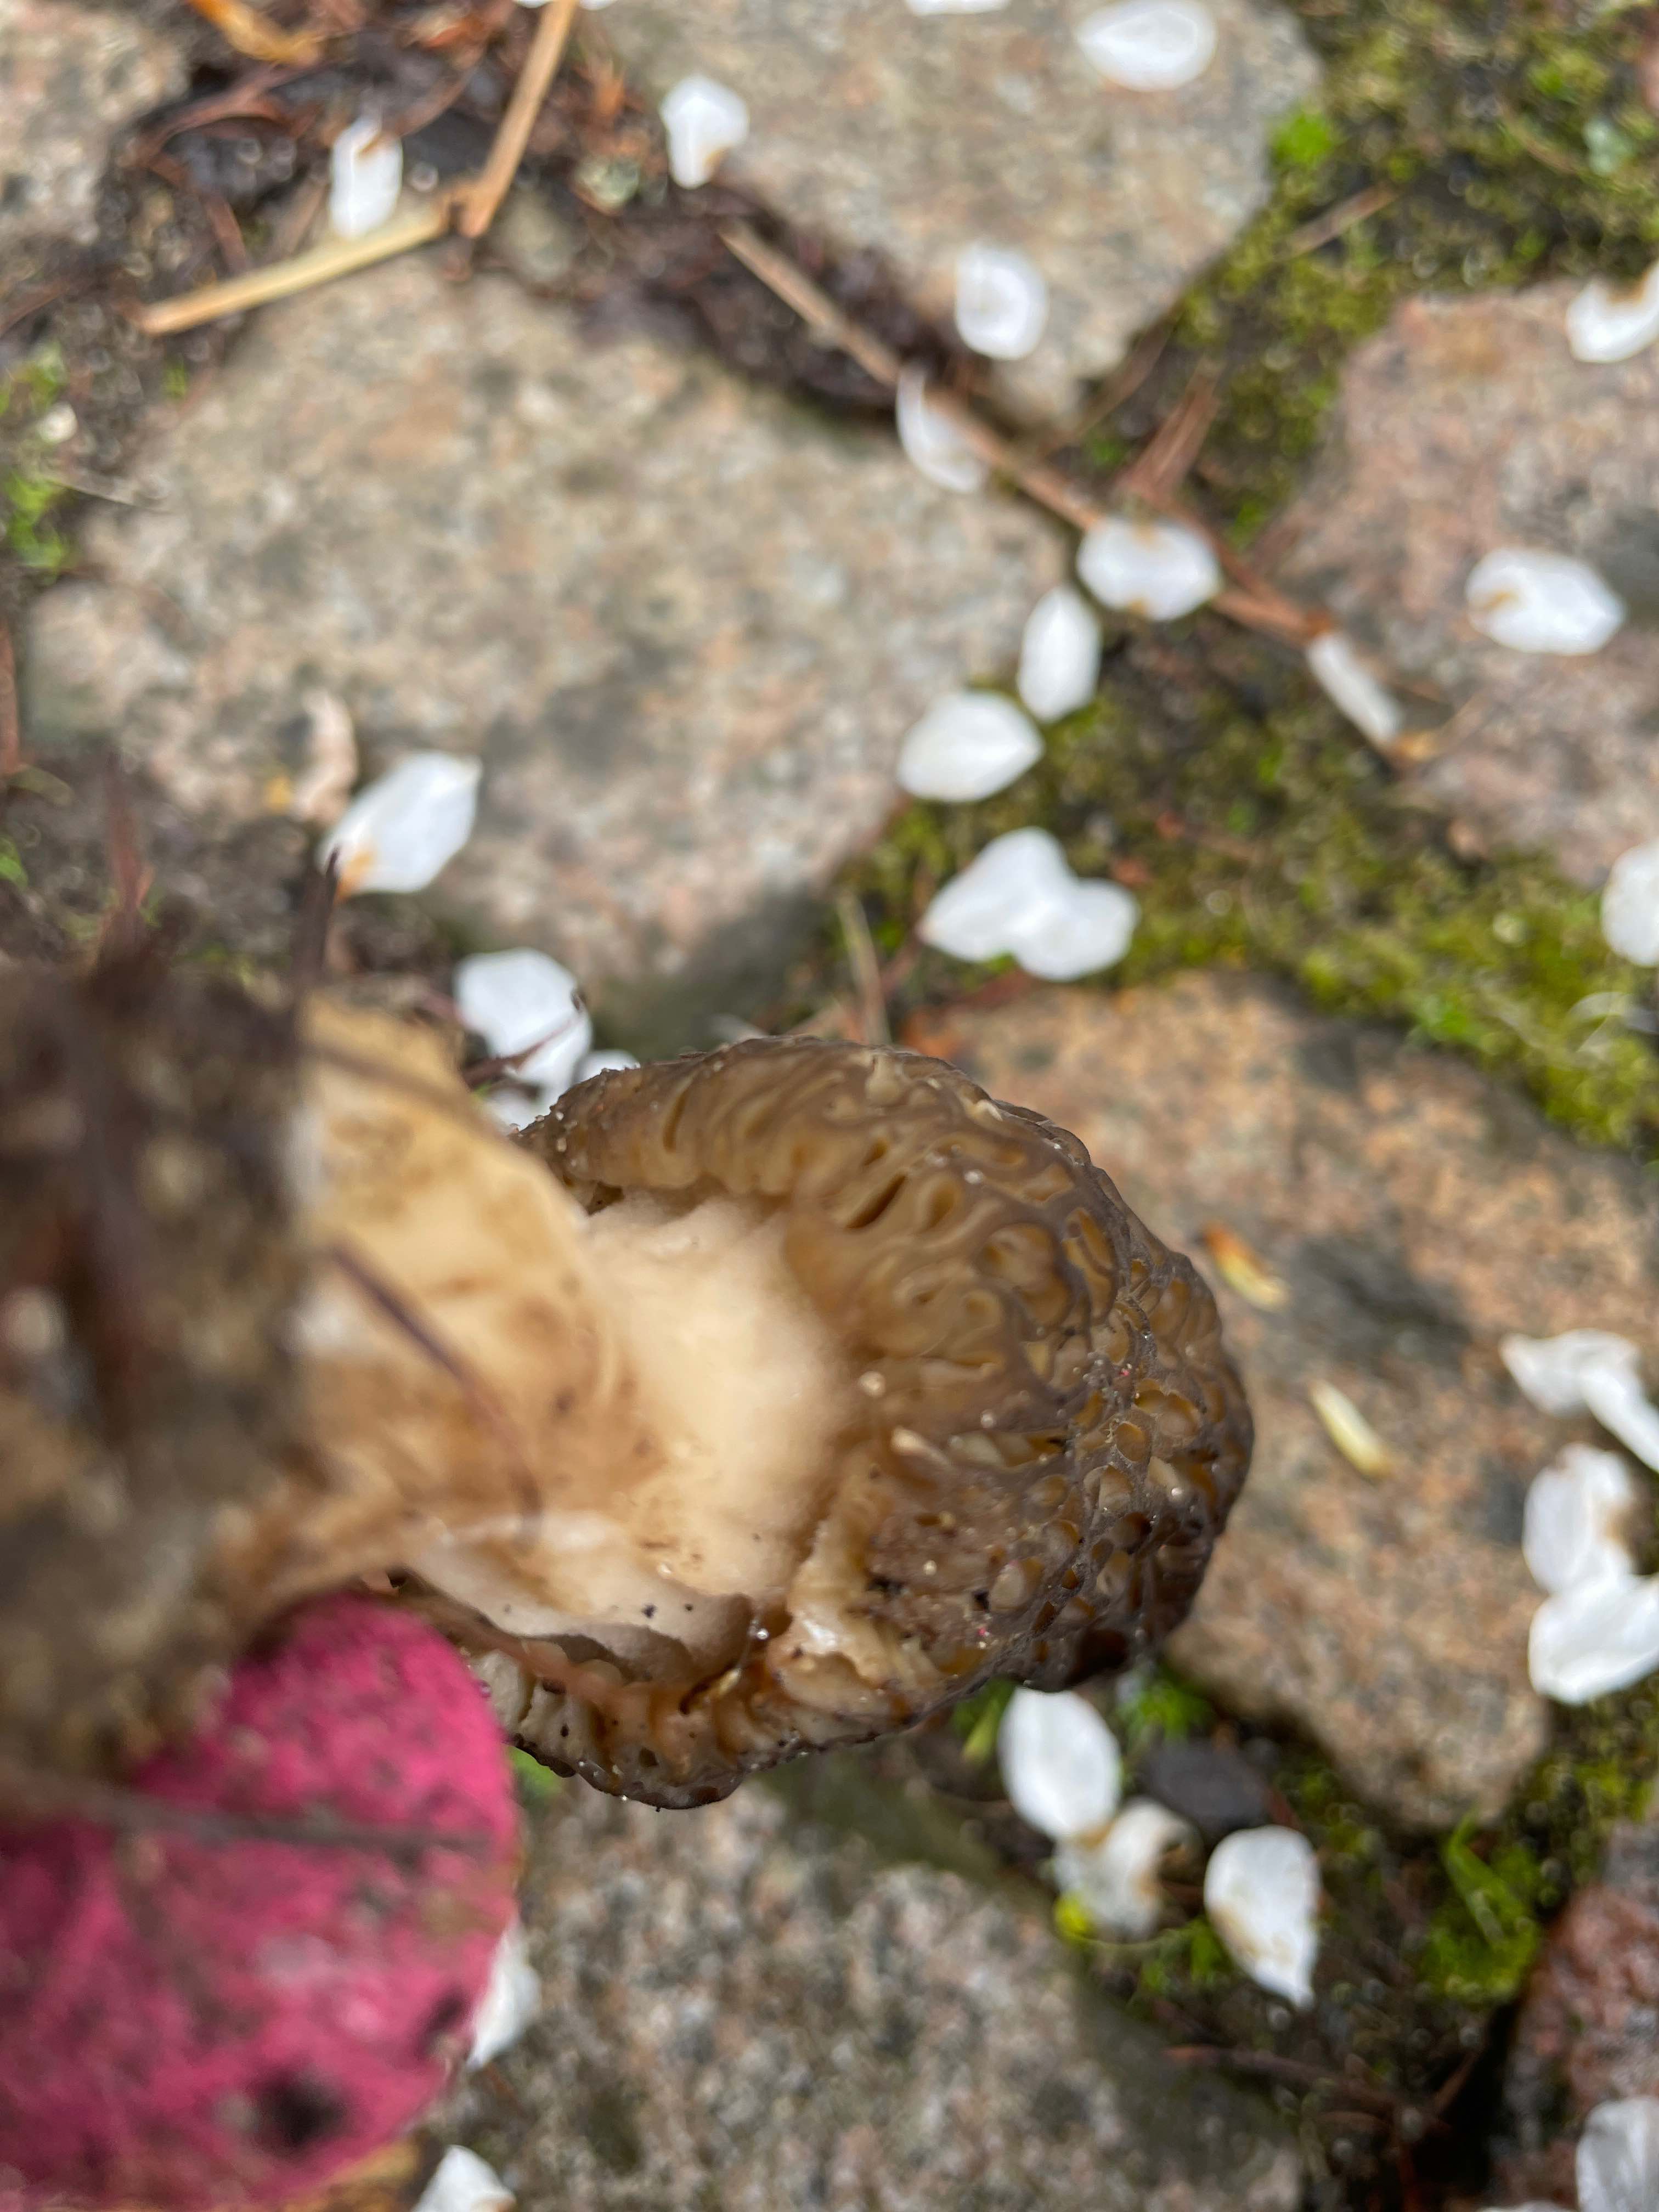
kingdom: Fungi
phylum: Ascomycota
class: Pezizomycetes
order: Pezizales
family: Morchellaceae
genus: Morchella
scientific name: Morchella importuna
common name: Landscaping black morel
